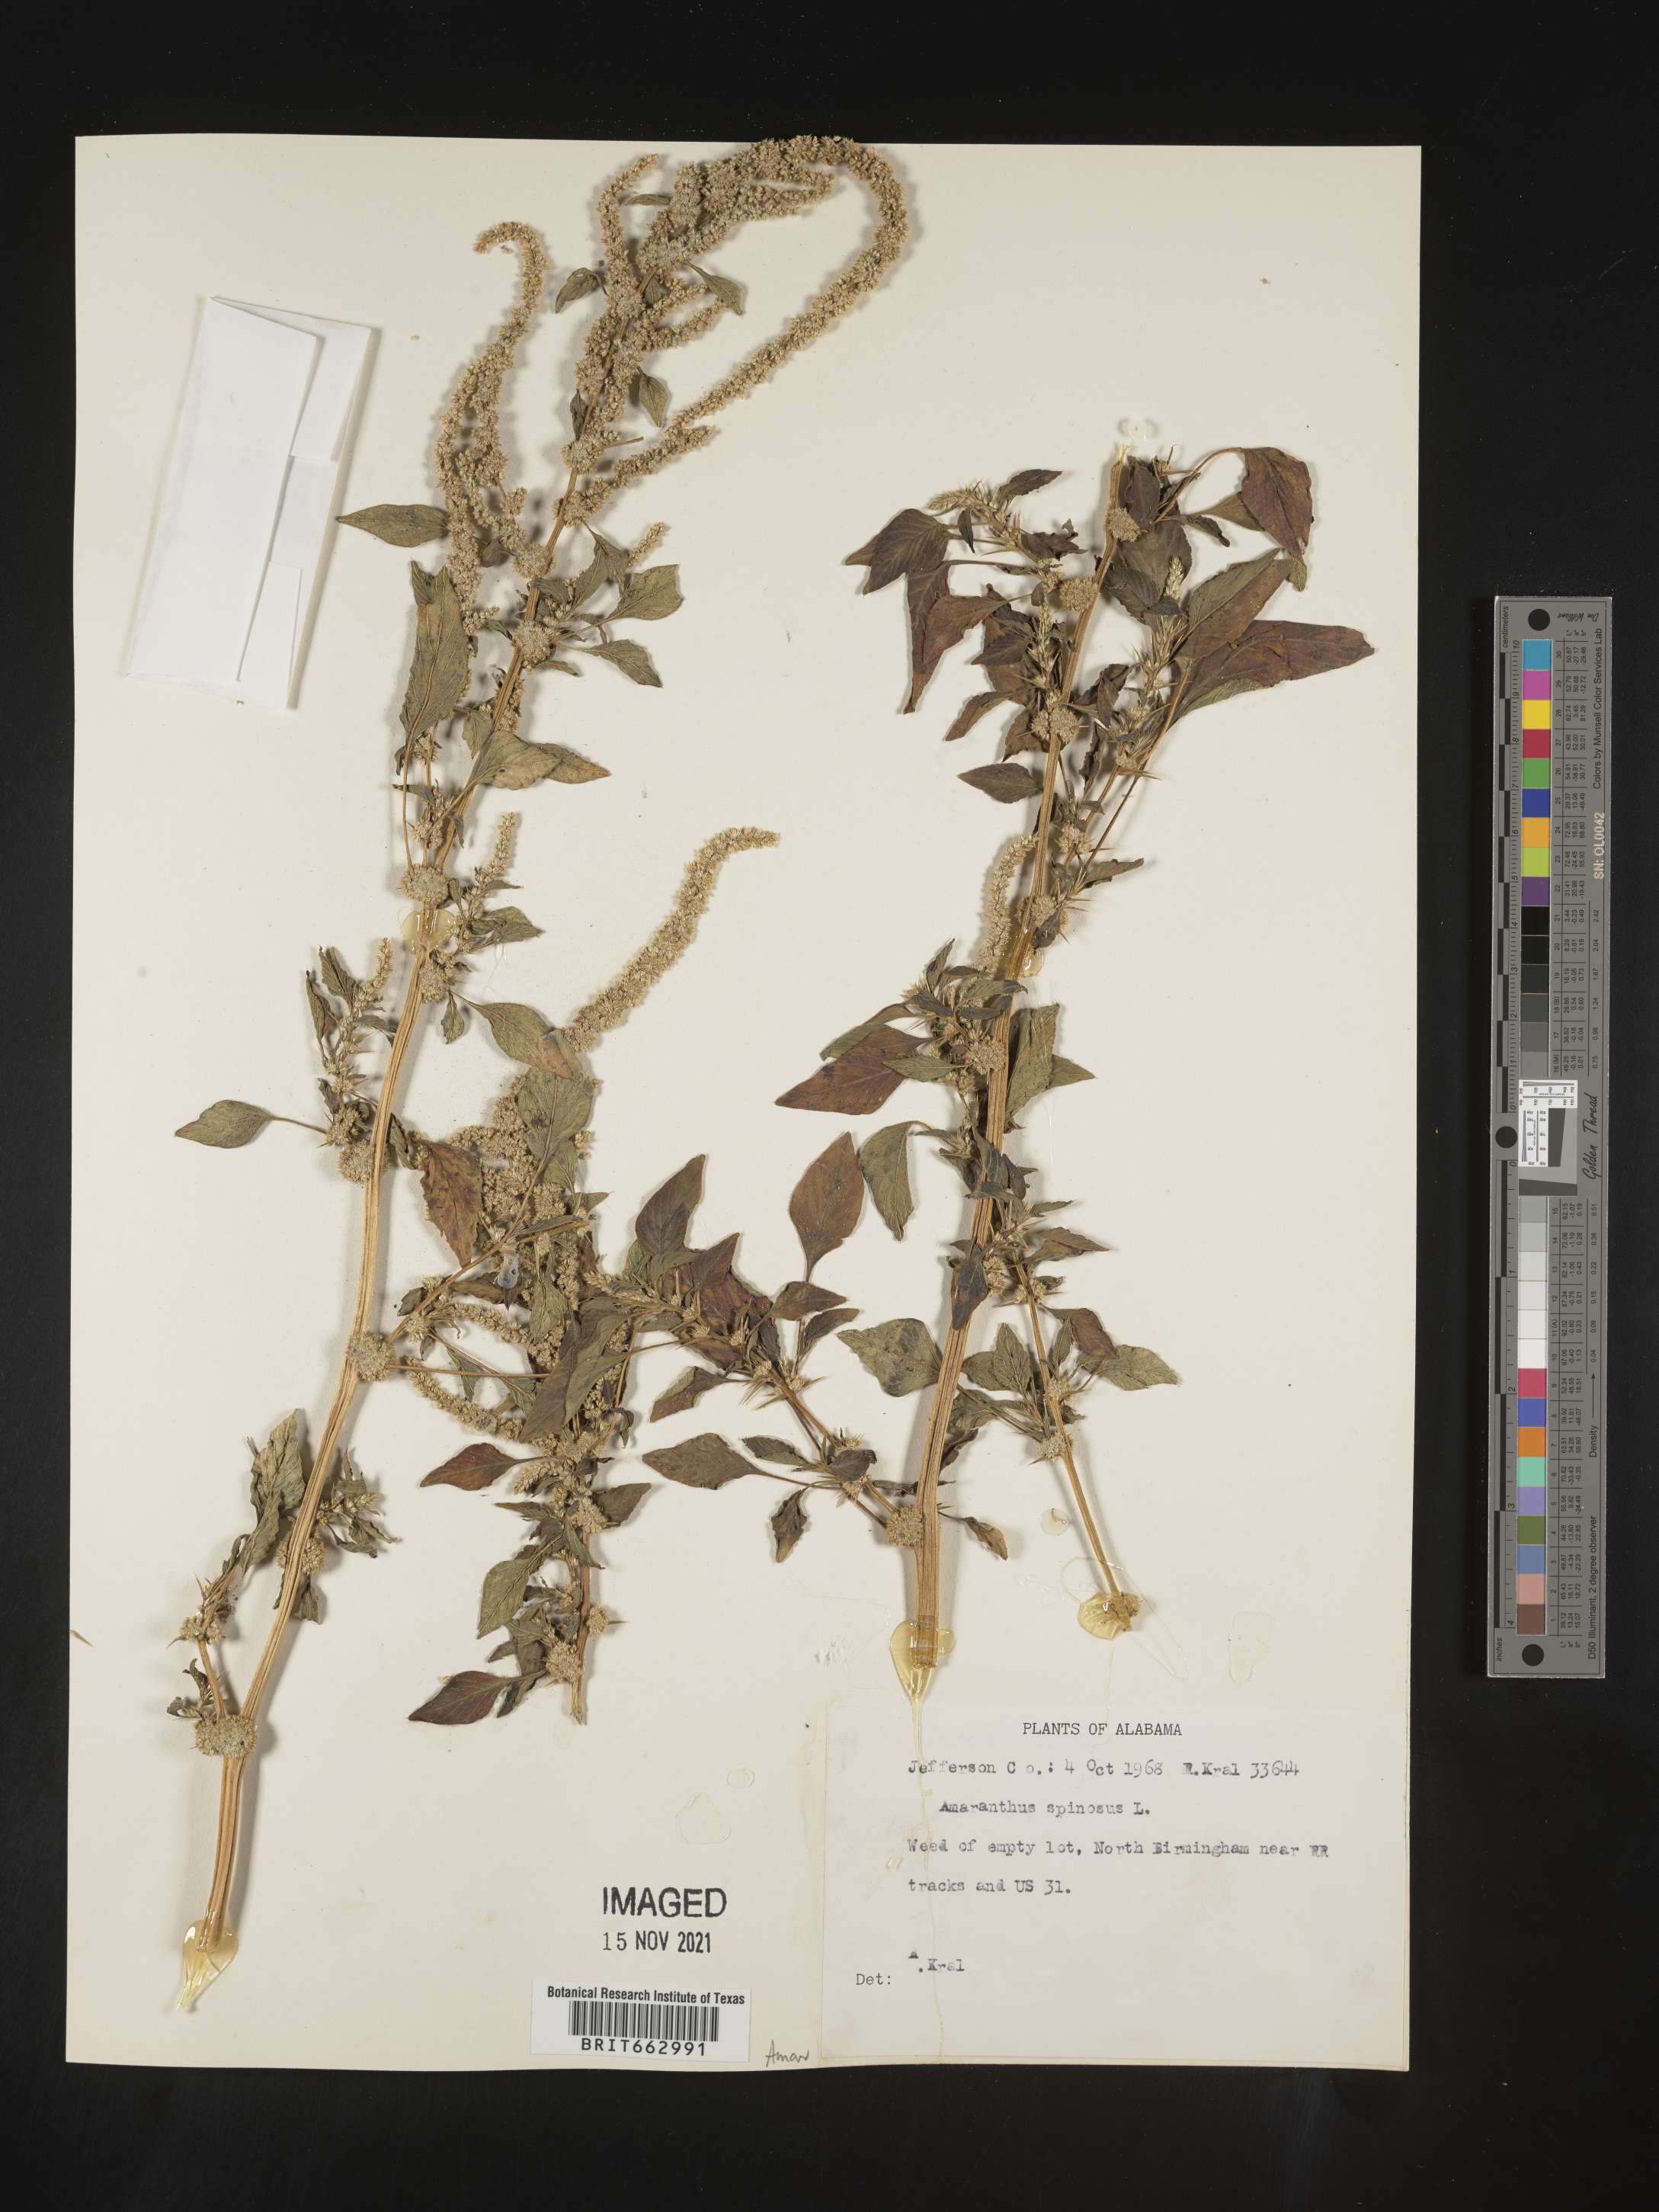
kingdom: Plantae
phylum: Tracheophyta
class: Magnoliopsida
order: Caryophyllales
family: Amaranthaceae
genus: Amaranthus
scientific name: Amaranthus spinosus
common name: Spiny amaranth
